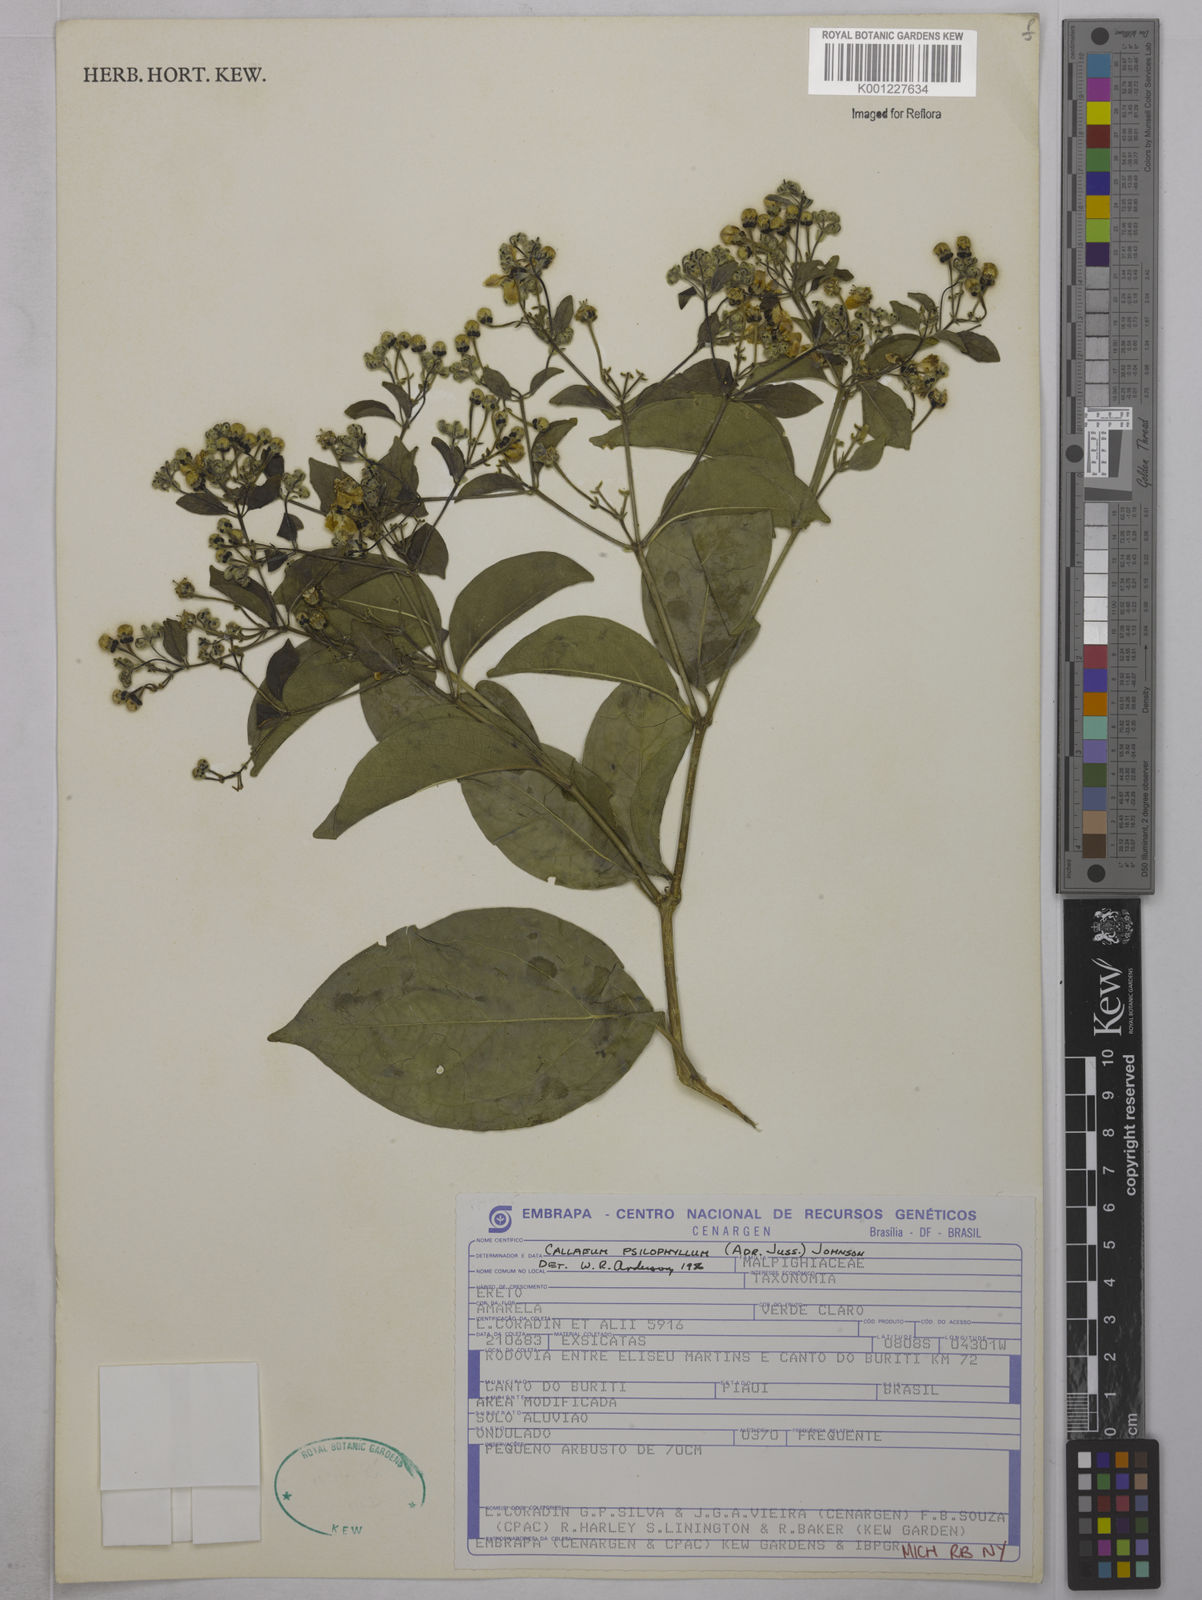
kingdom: Plantae
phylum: Tracheophyta
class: Magnoliopsida
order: Malpighiales
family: Malpighiaceae
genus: Callaeum
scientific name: Callaeum psilophyllum
